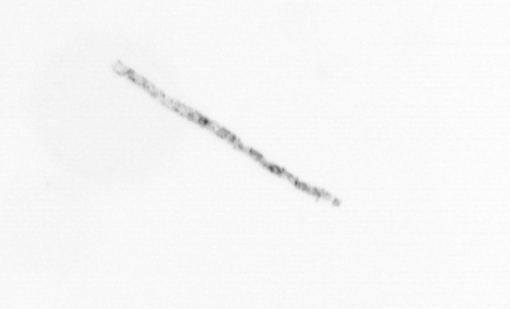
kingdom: Chromista
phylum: Ochrophyta
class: Bacillariophyceae
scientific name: Bacillariophyceae
